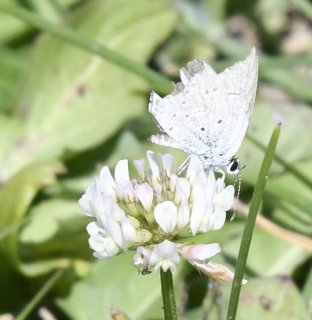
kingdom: Animalia
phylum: Arthropoda
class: Insecta
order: Lepidoptera
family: Lycaenidae
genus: Cyaniris
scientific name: Cyaniris neglecta
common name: Summer Azure
